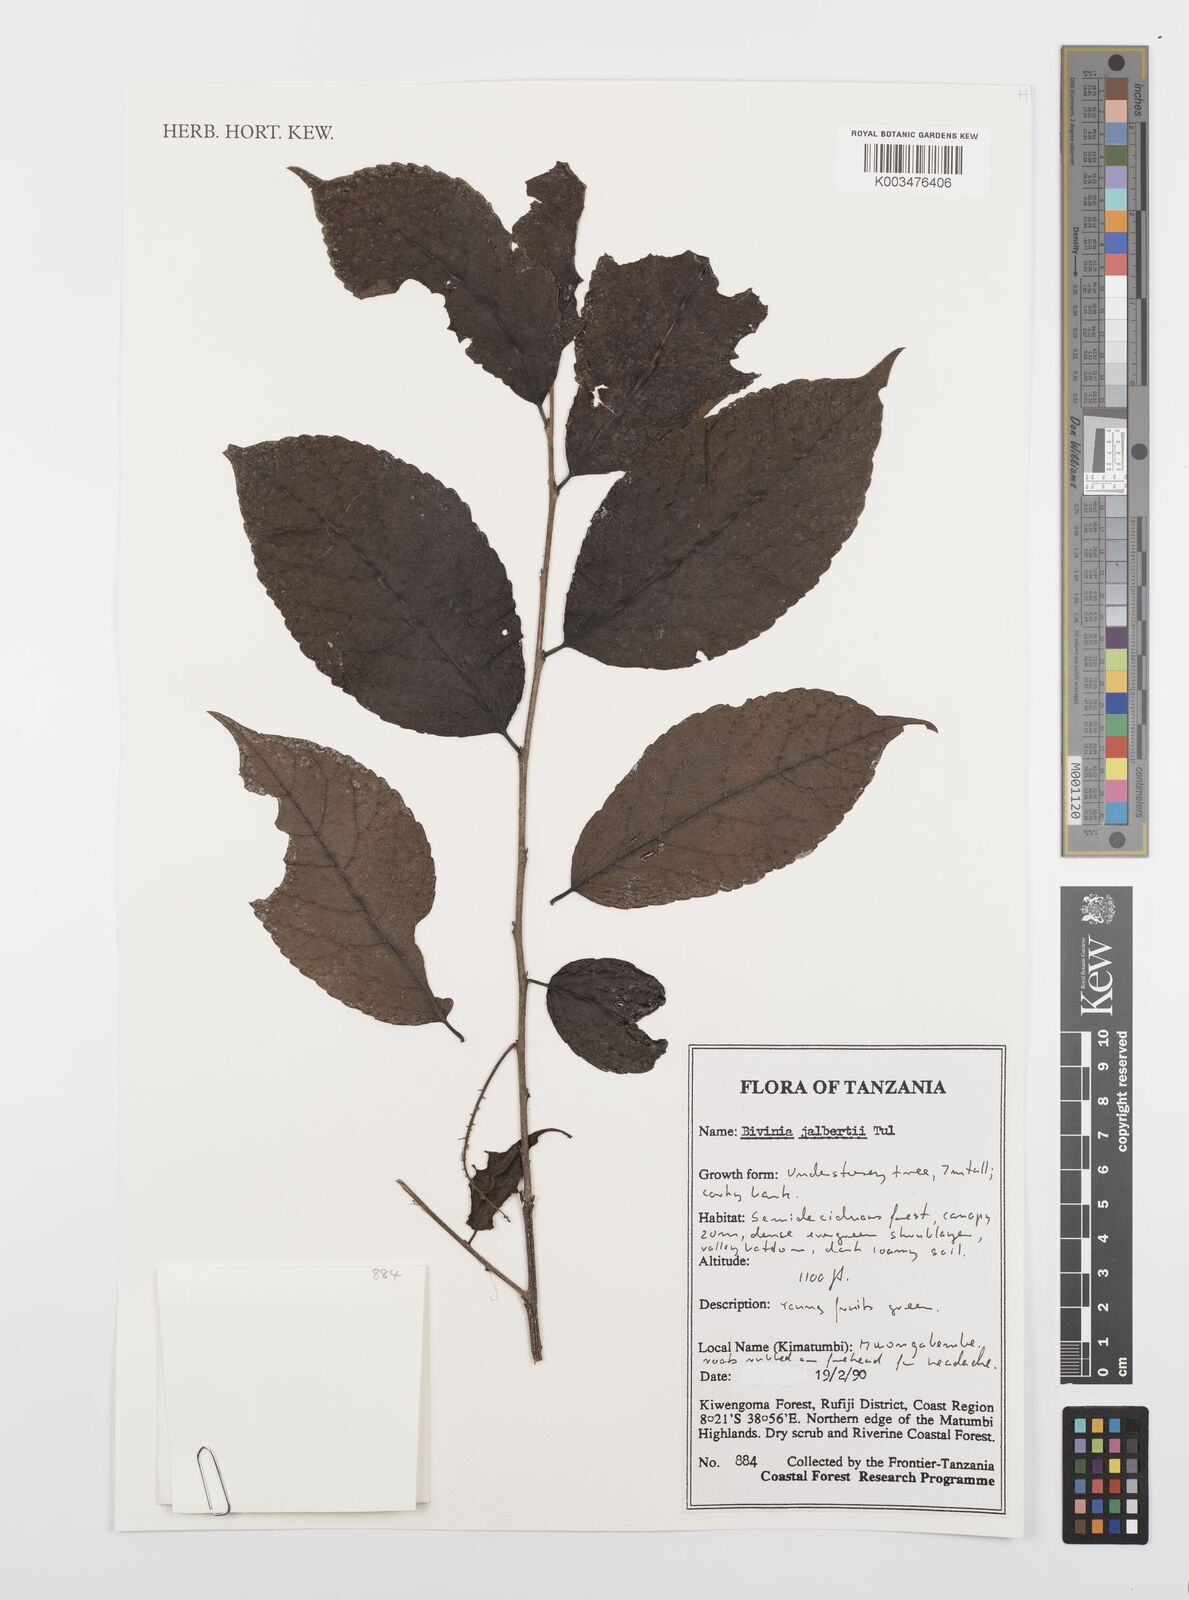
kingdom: Plantae
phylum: Tracheophyta
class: Magnoliopsida
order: Malpighiales
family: Salicaceae
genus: Bivinia
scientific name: Bivinia jalbertii
